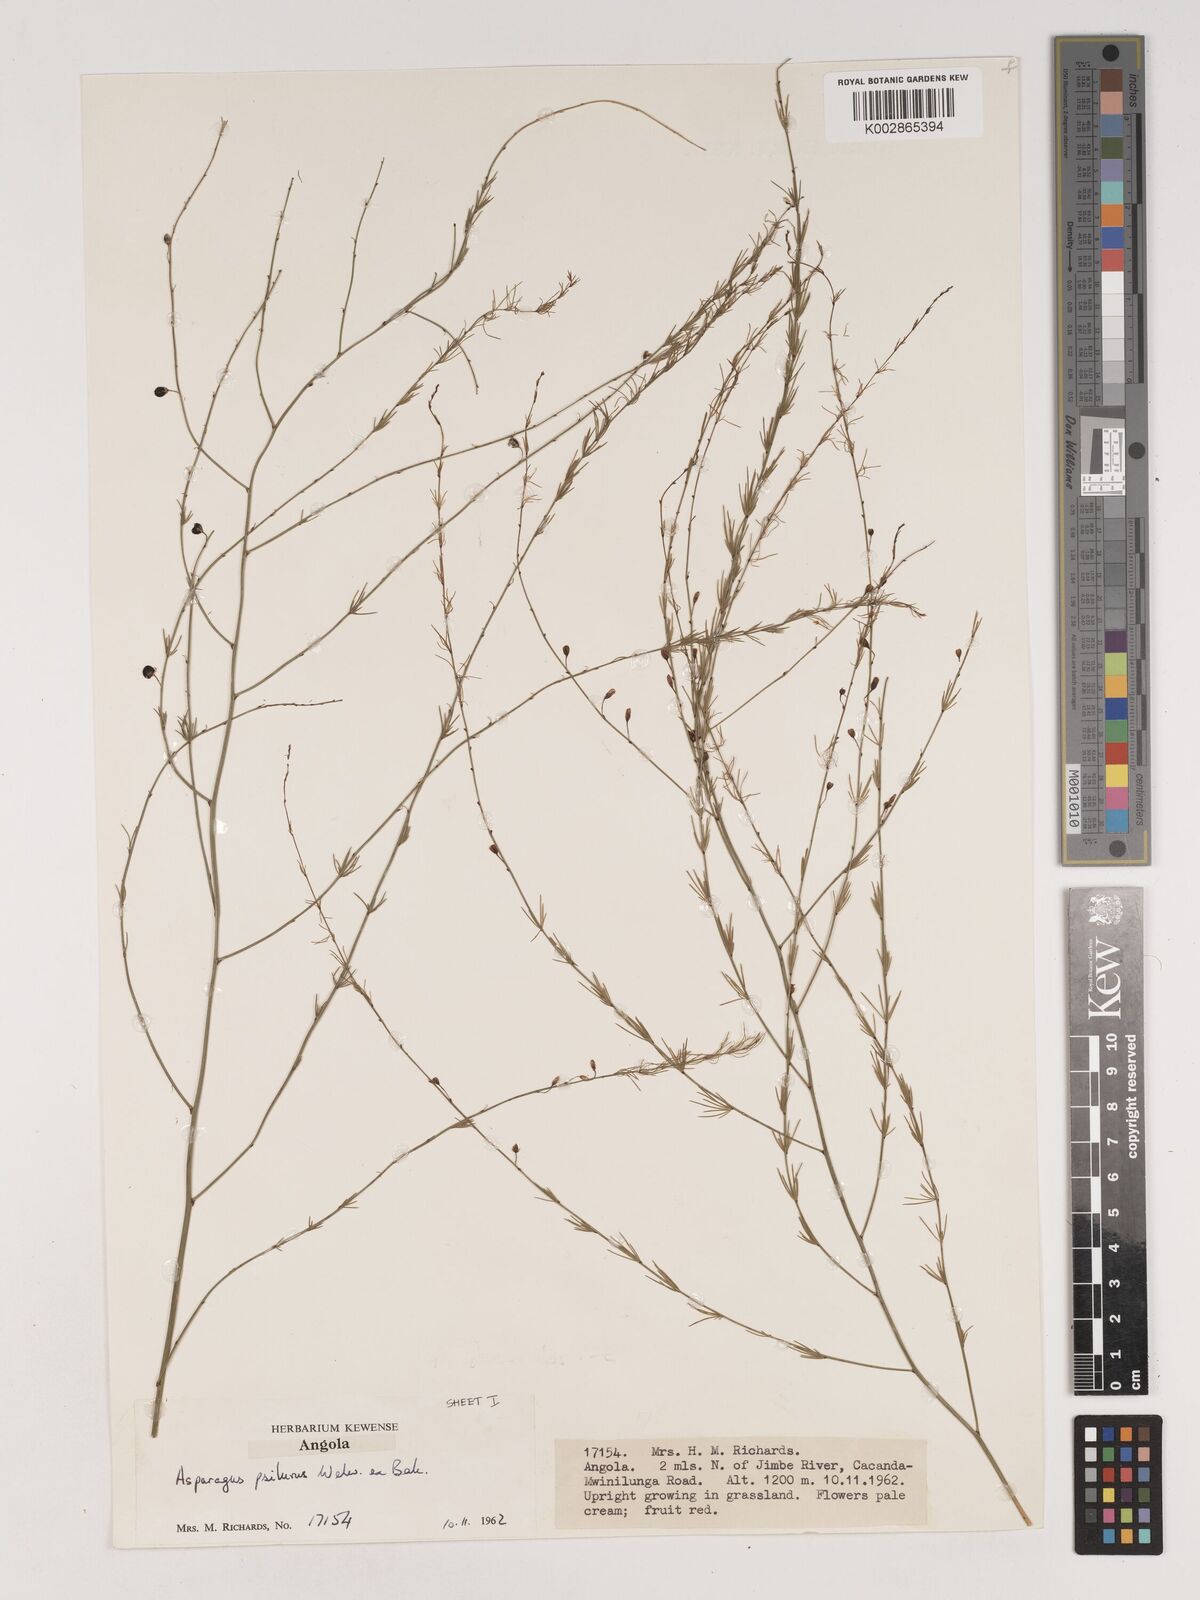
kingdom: Plantae
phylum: Tracheophyta
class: Liliopsida
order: Asparagales
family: Asparagaceae
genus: Asparagus
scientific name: Asparagus psilurus
